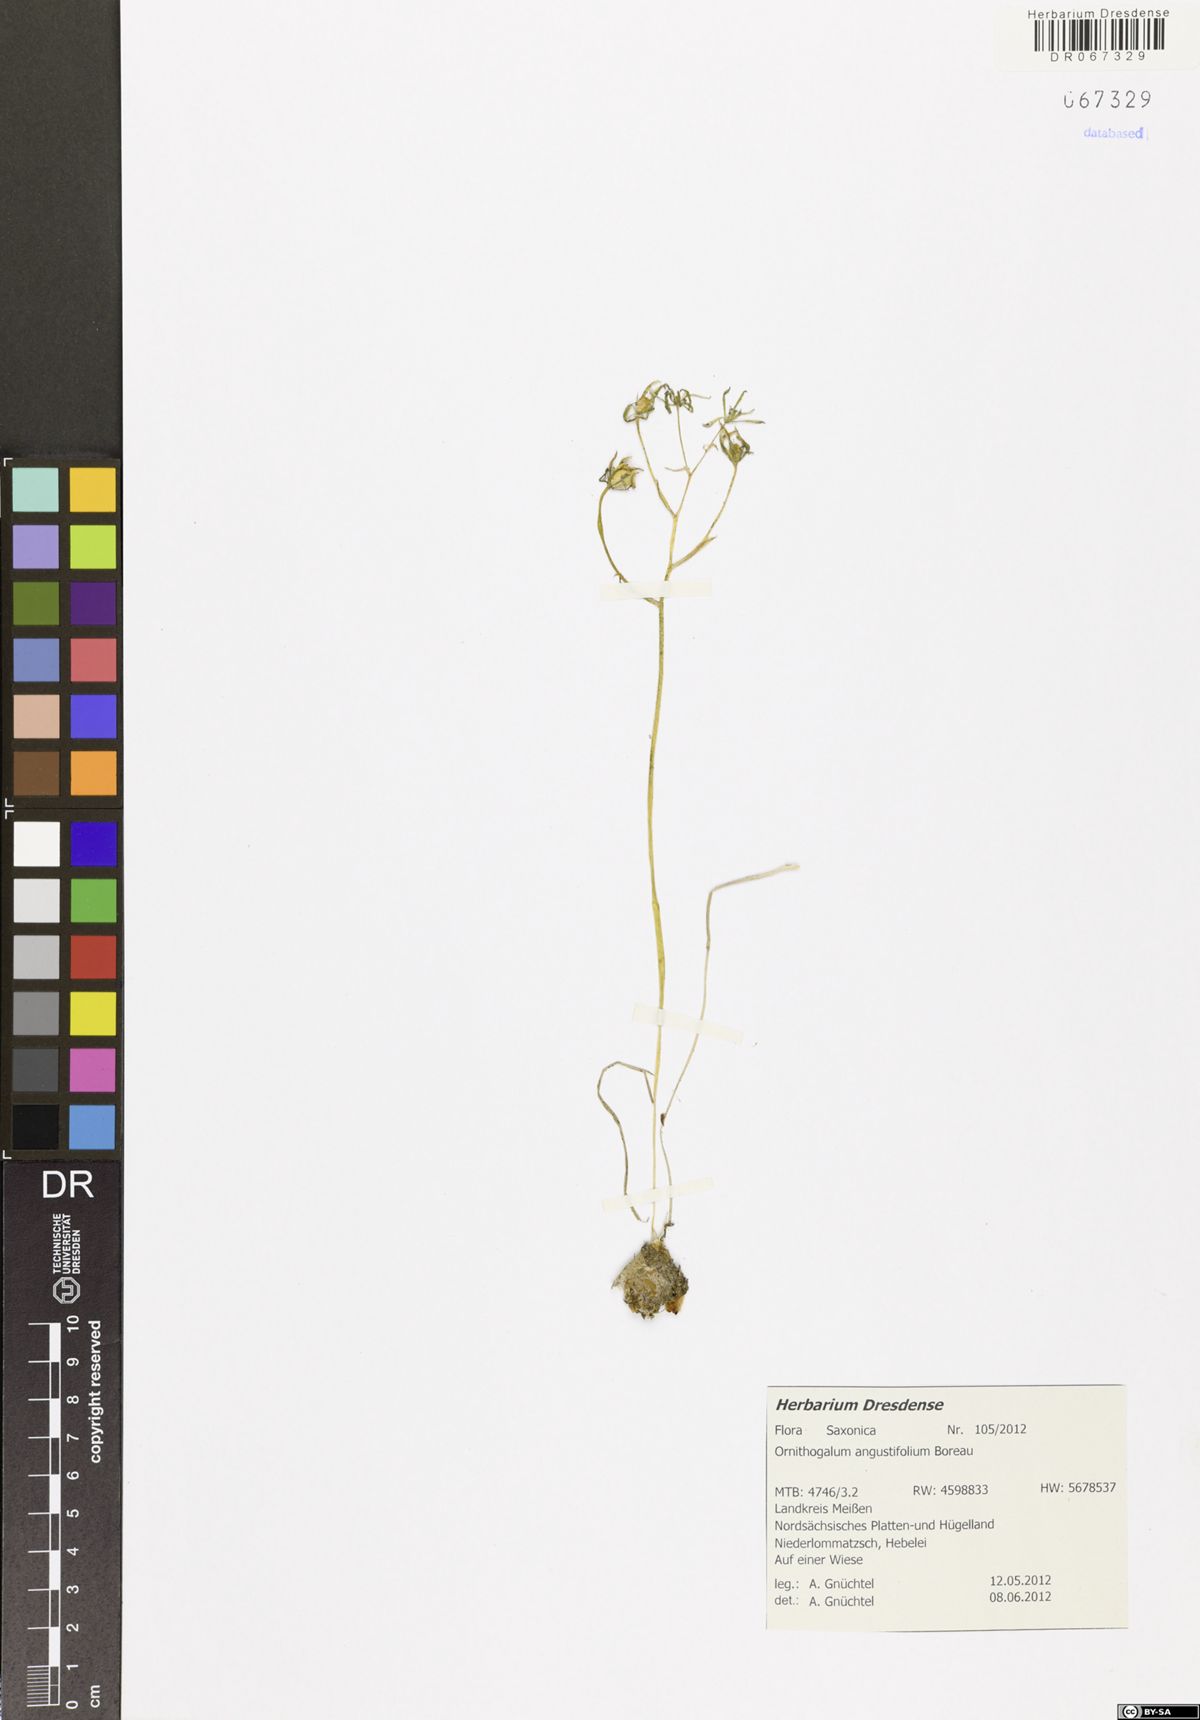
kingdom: Plantae
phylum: Tracheophyta
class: Liliopsida
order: Asparagales
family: Asparagaceae
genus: Ornithogalum
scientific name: Ornithogalum umbellatum
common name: Garden star-of-bethlehem
